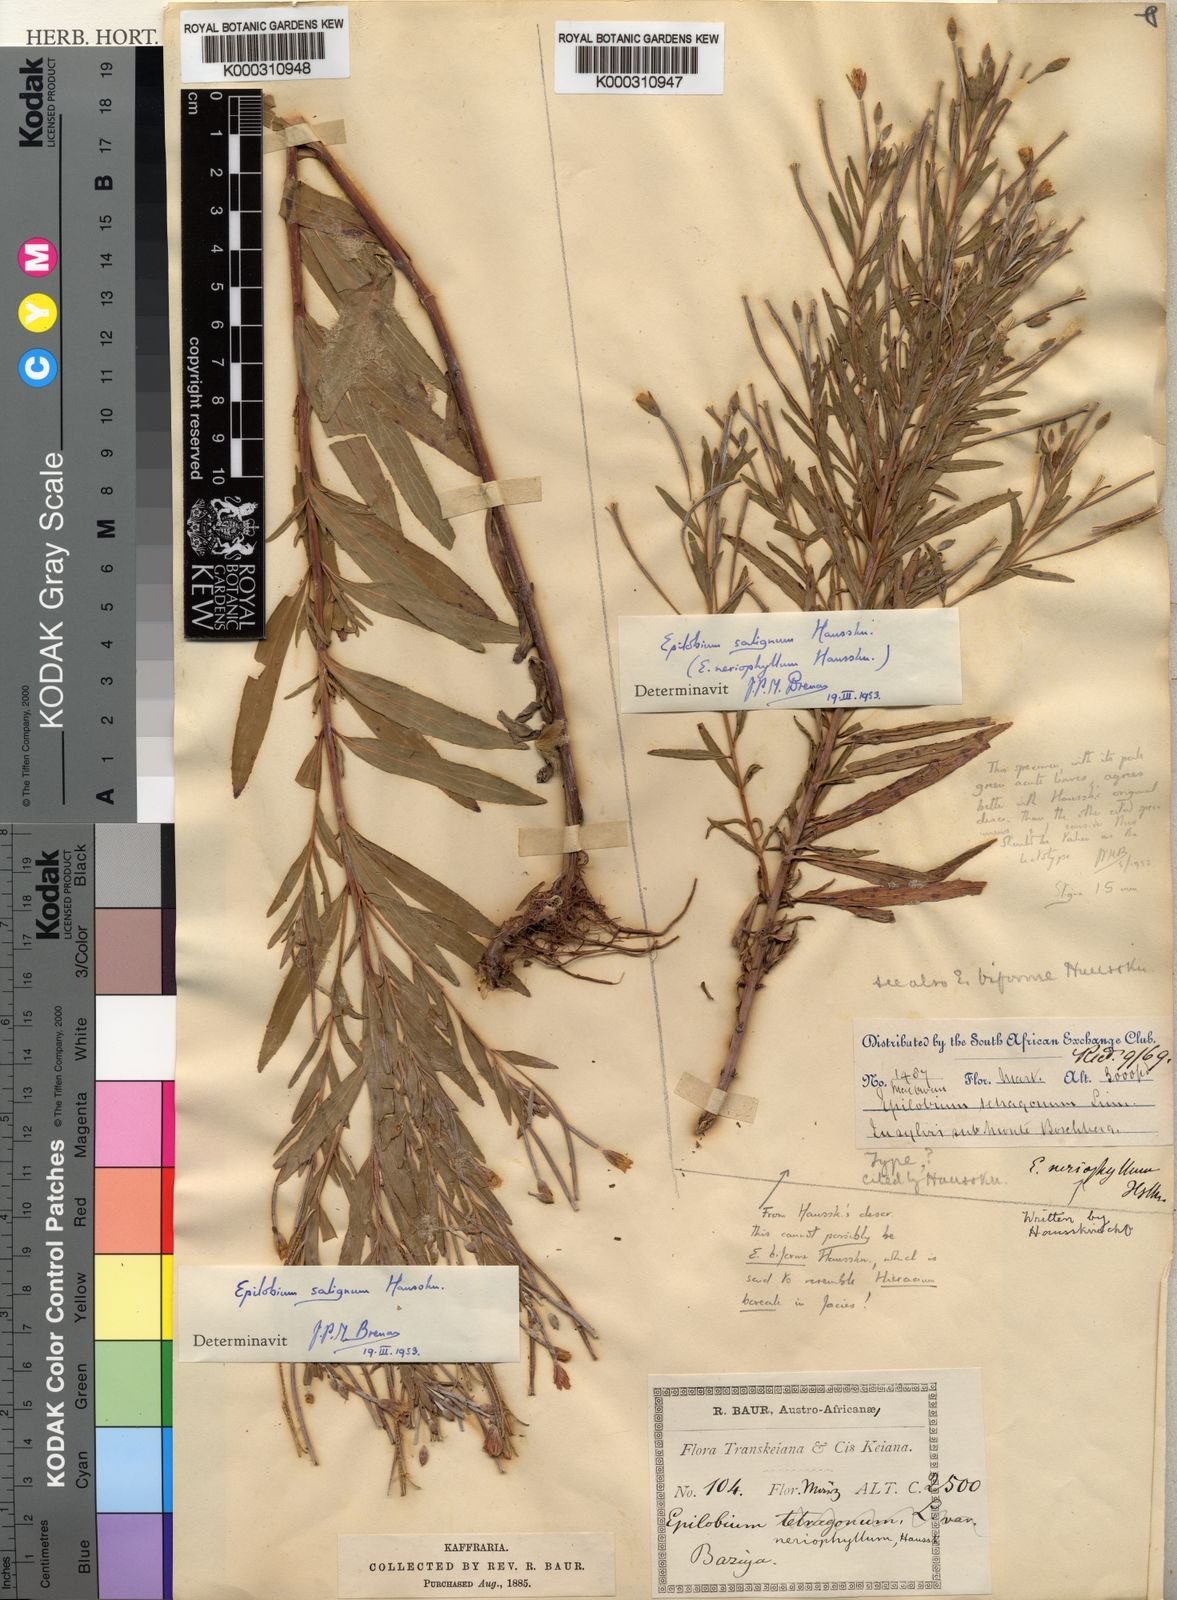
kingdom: Plantae
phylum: Tracheophyta
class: Magnoliopsida
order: Myrtales
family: Onagraceae
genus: Epilobium
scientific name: Epilobium salignum
